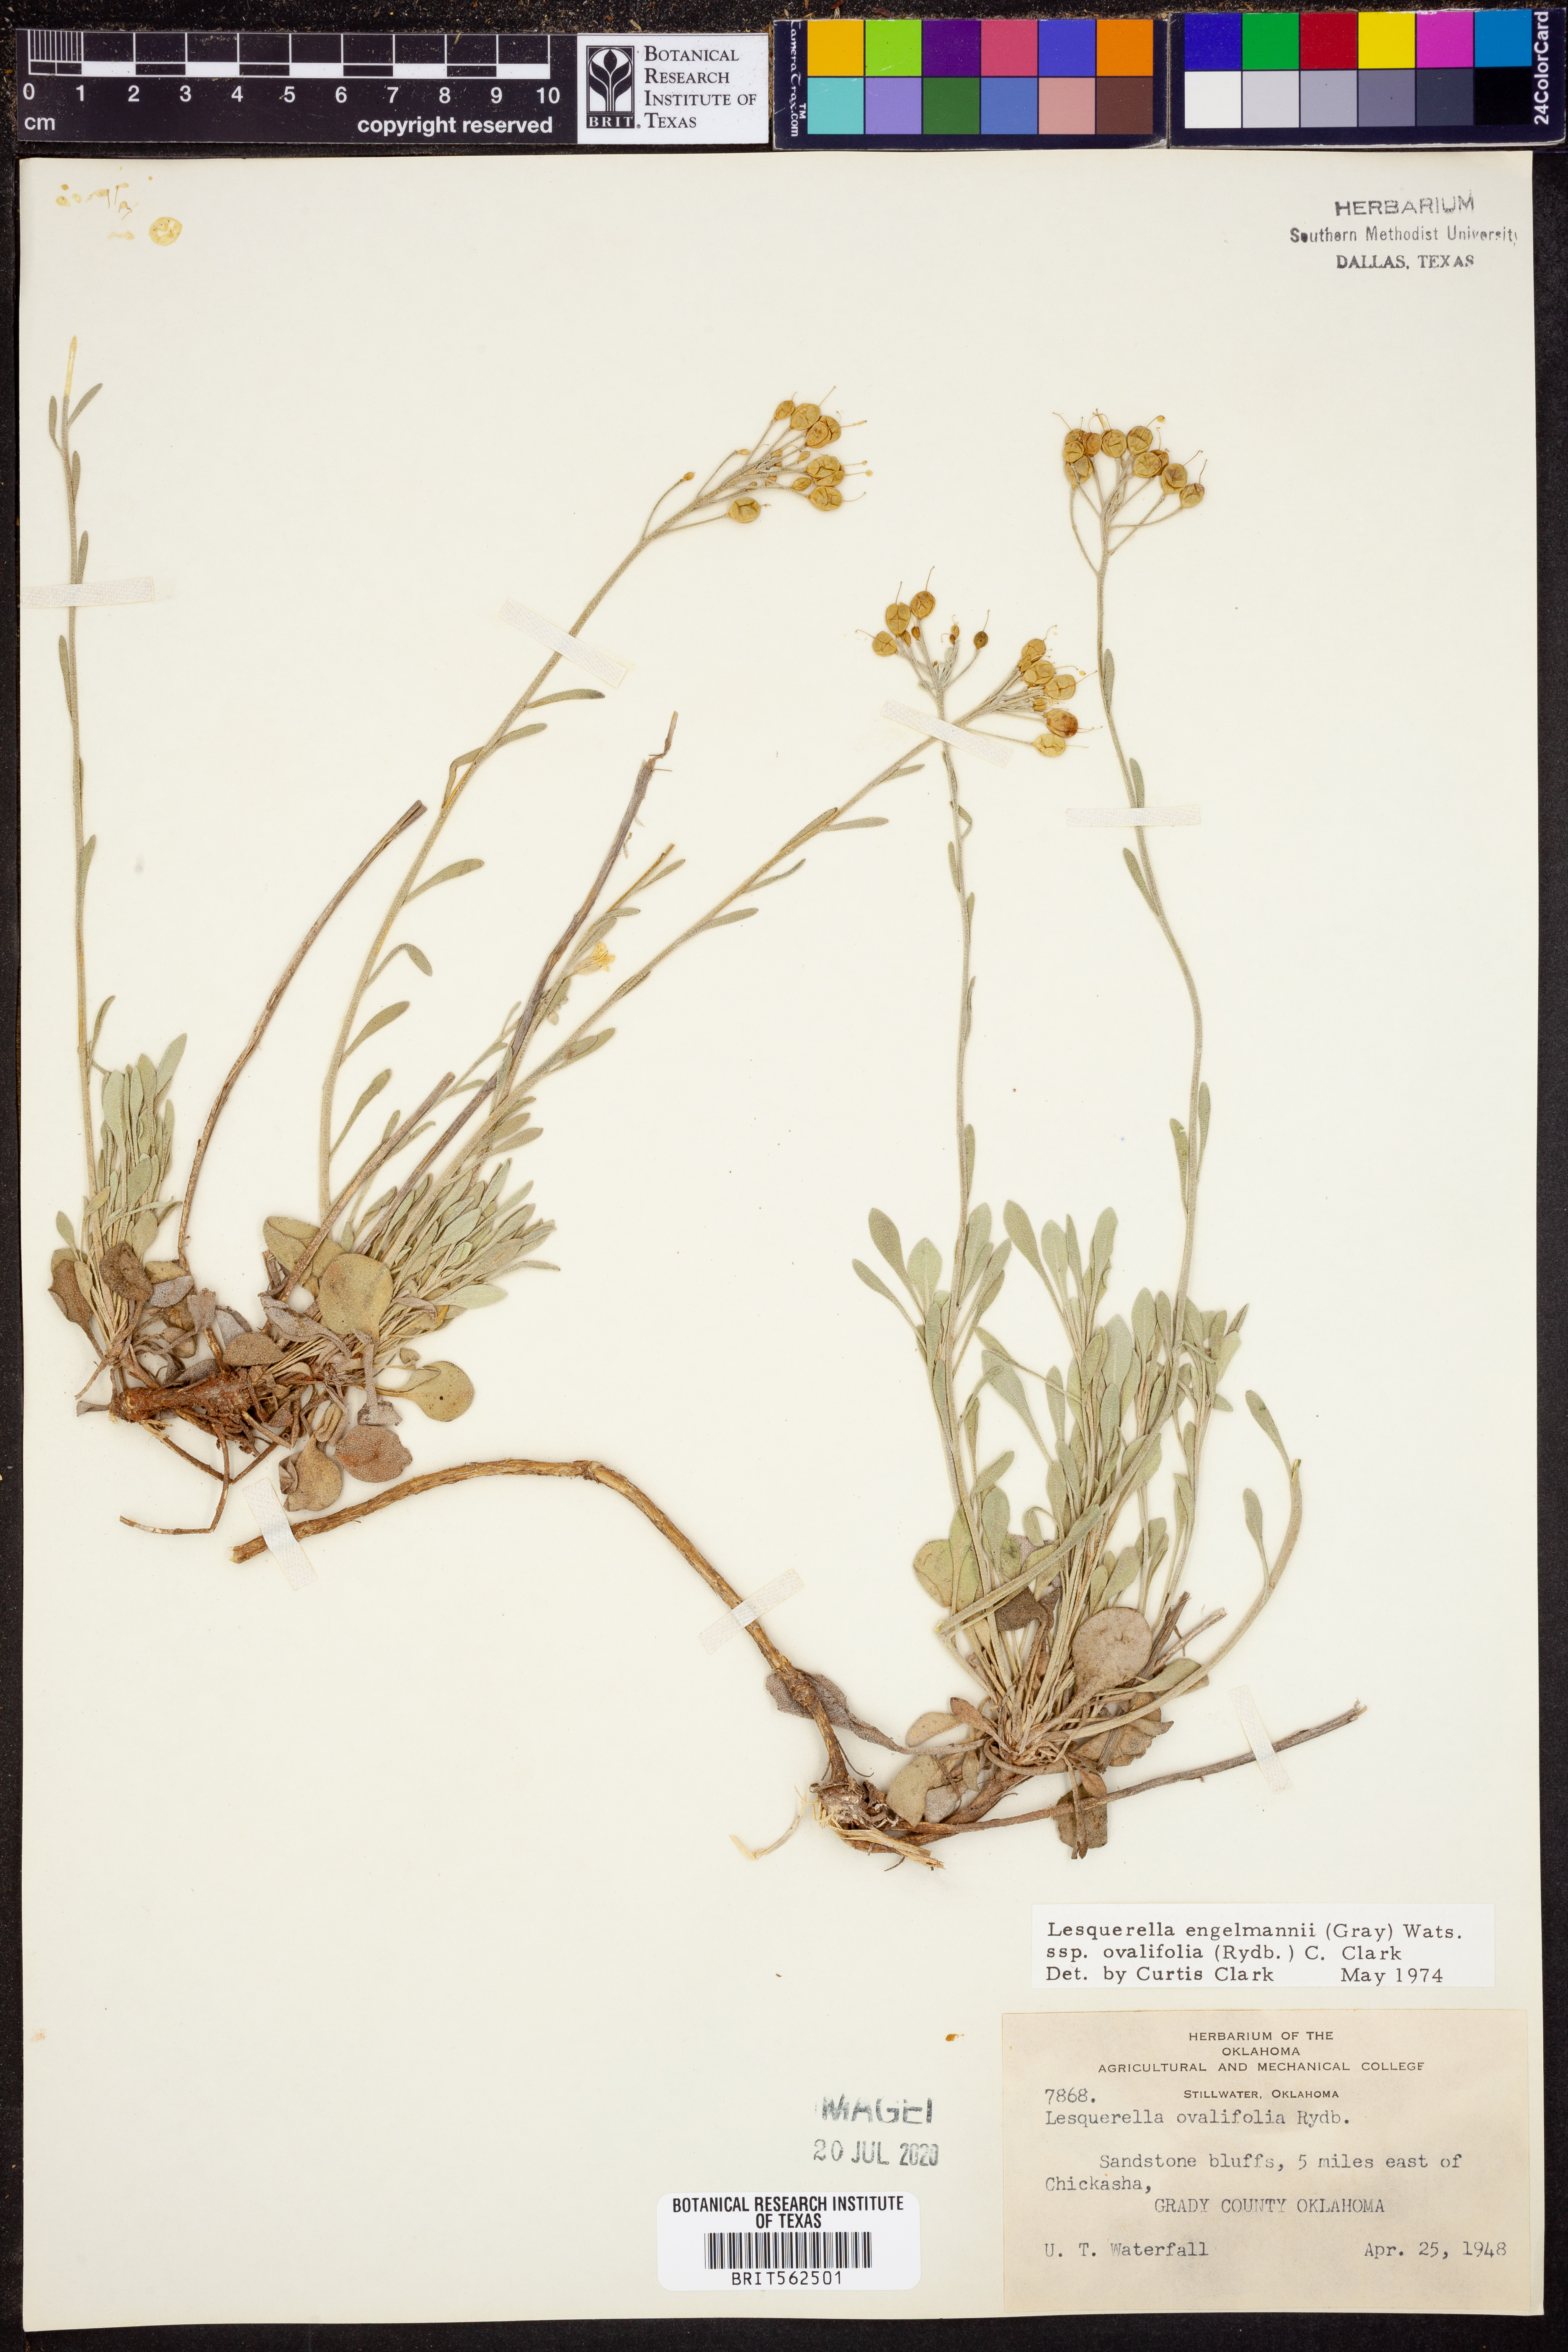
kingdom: Plantae
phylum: Tracheophyta
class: Magnoliopsida
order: Brassicales
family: Brassicaceae
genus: Physaria
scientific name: Physaria ovalifolia
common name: Round-leaf bladderpod
